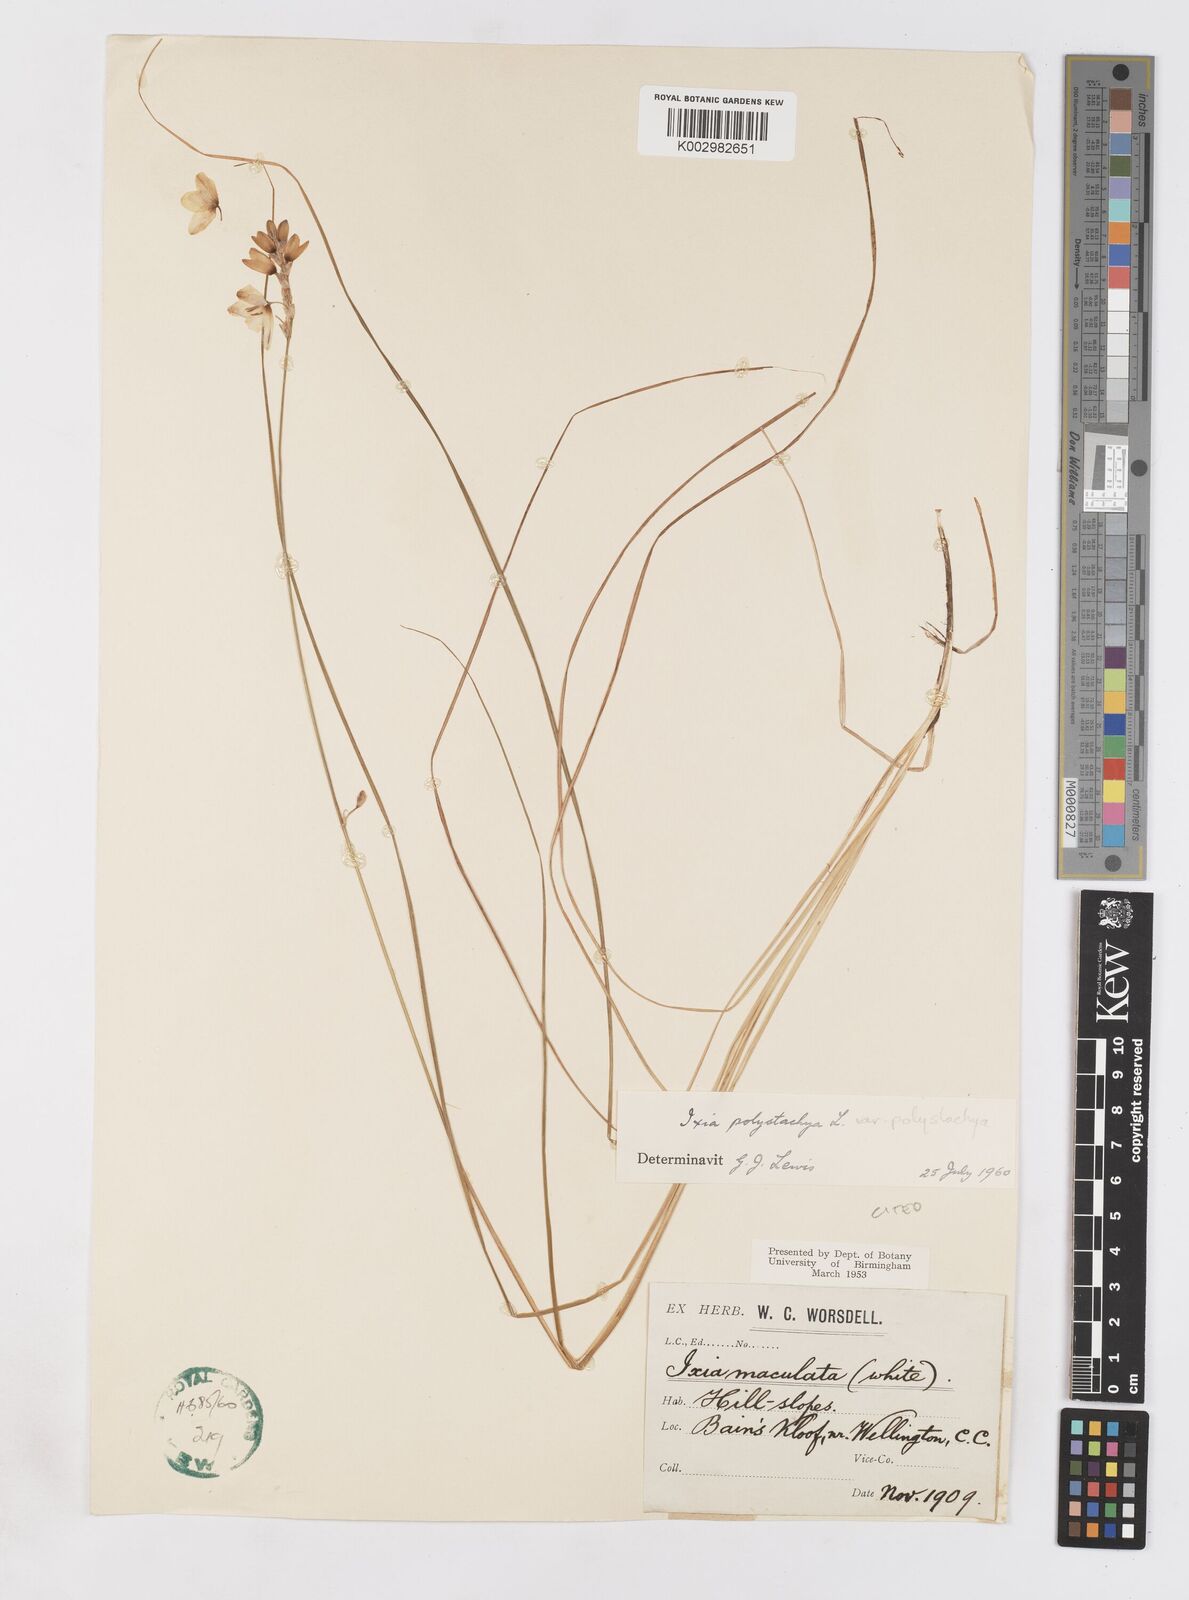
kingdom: Plantae
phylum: Tracheophyta
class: Liliopsida
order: Asparagales
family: Iridaceae
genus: Ixia
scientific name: Ixia polystachya
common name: White-and-yellow-flower cornlily
